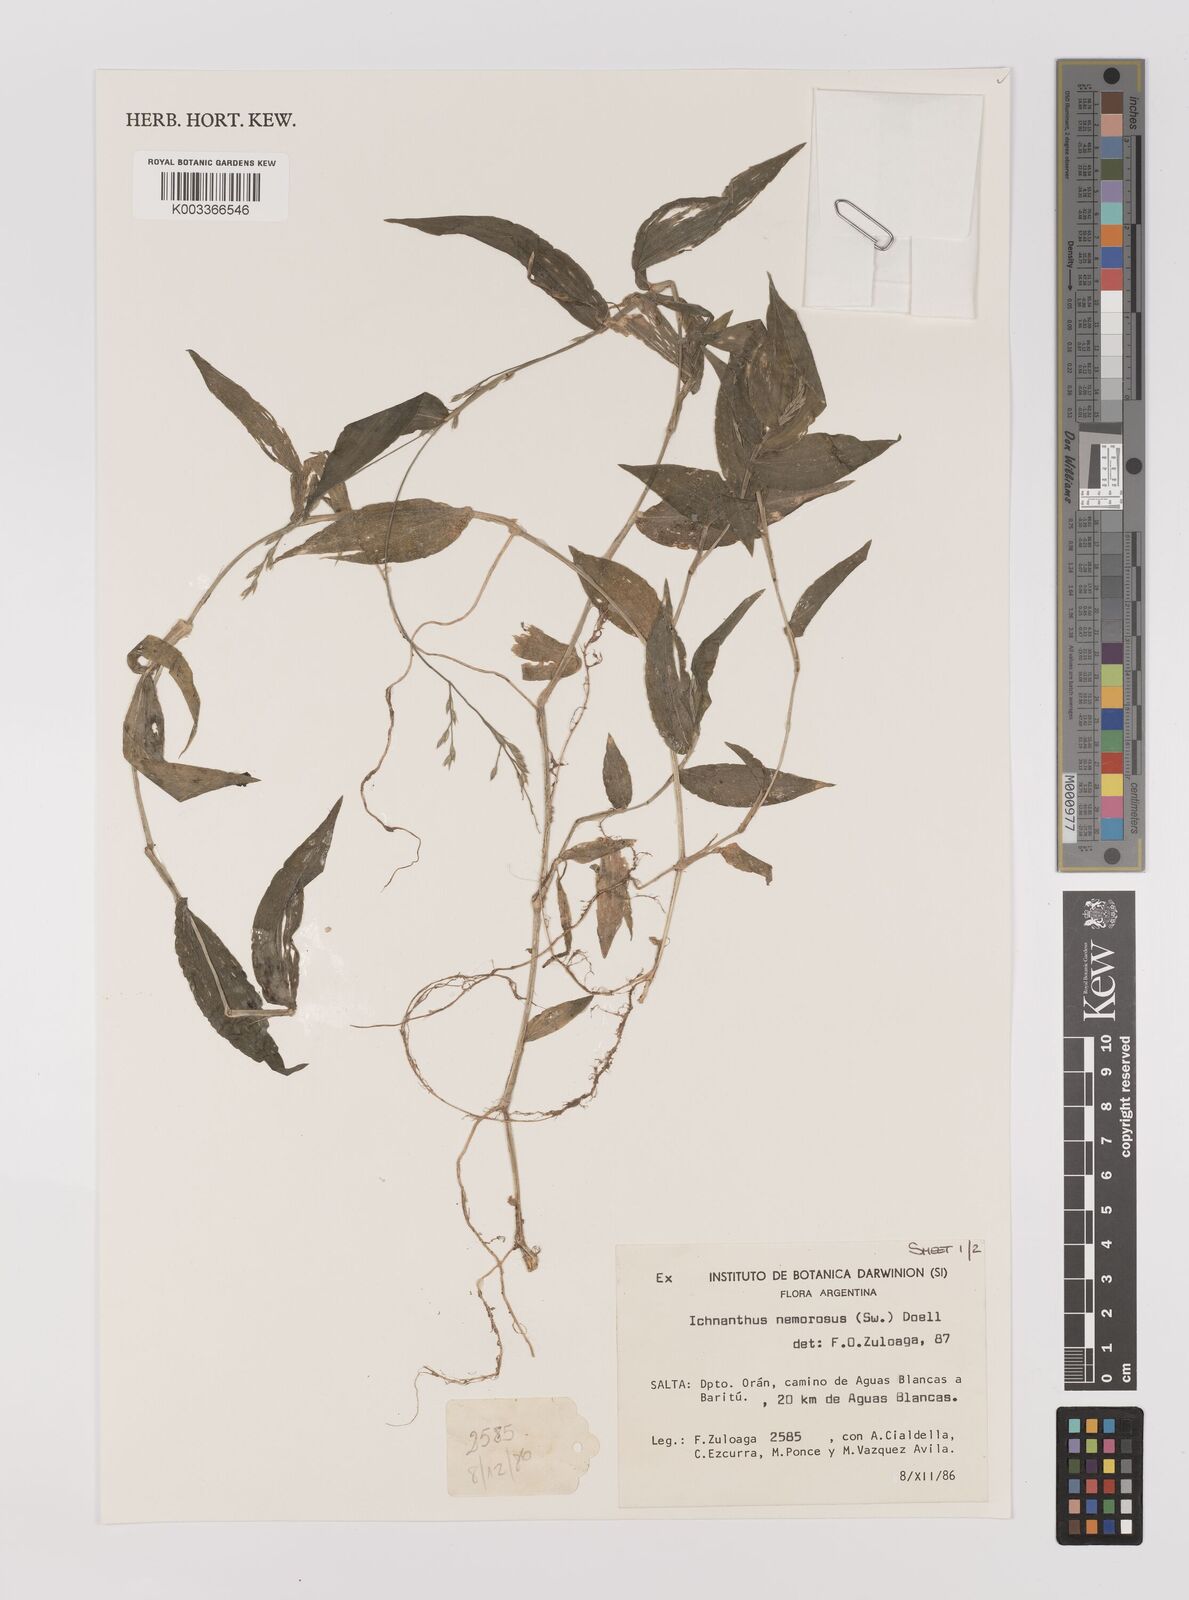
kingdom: Plantae
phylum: Tracheophyta
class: Liliopsida
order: Poales
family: Poaceae
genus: Ichnanthus
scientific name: Ichnanthus nemorosus
